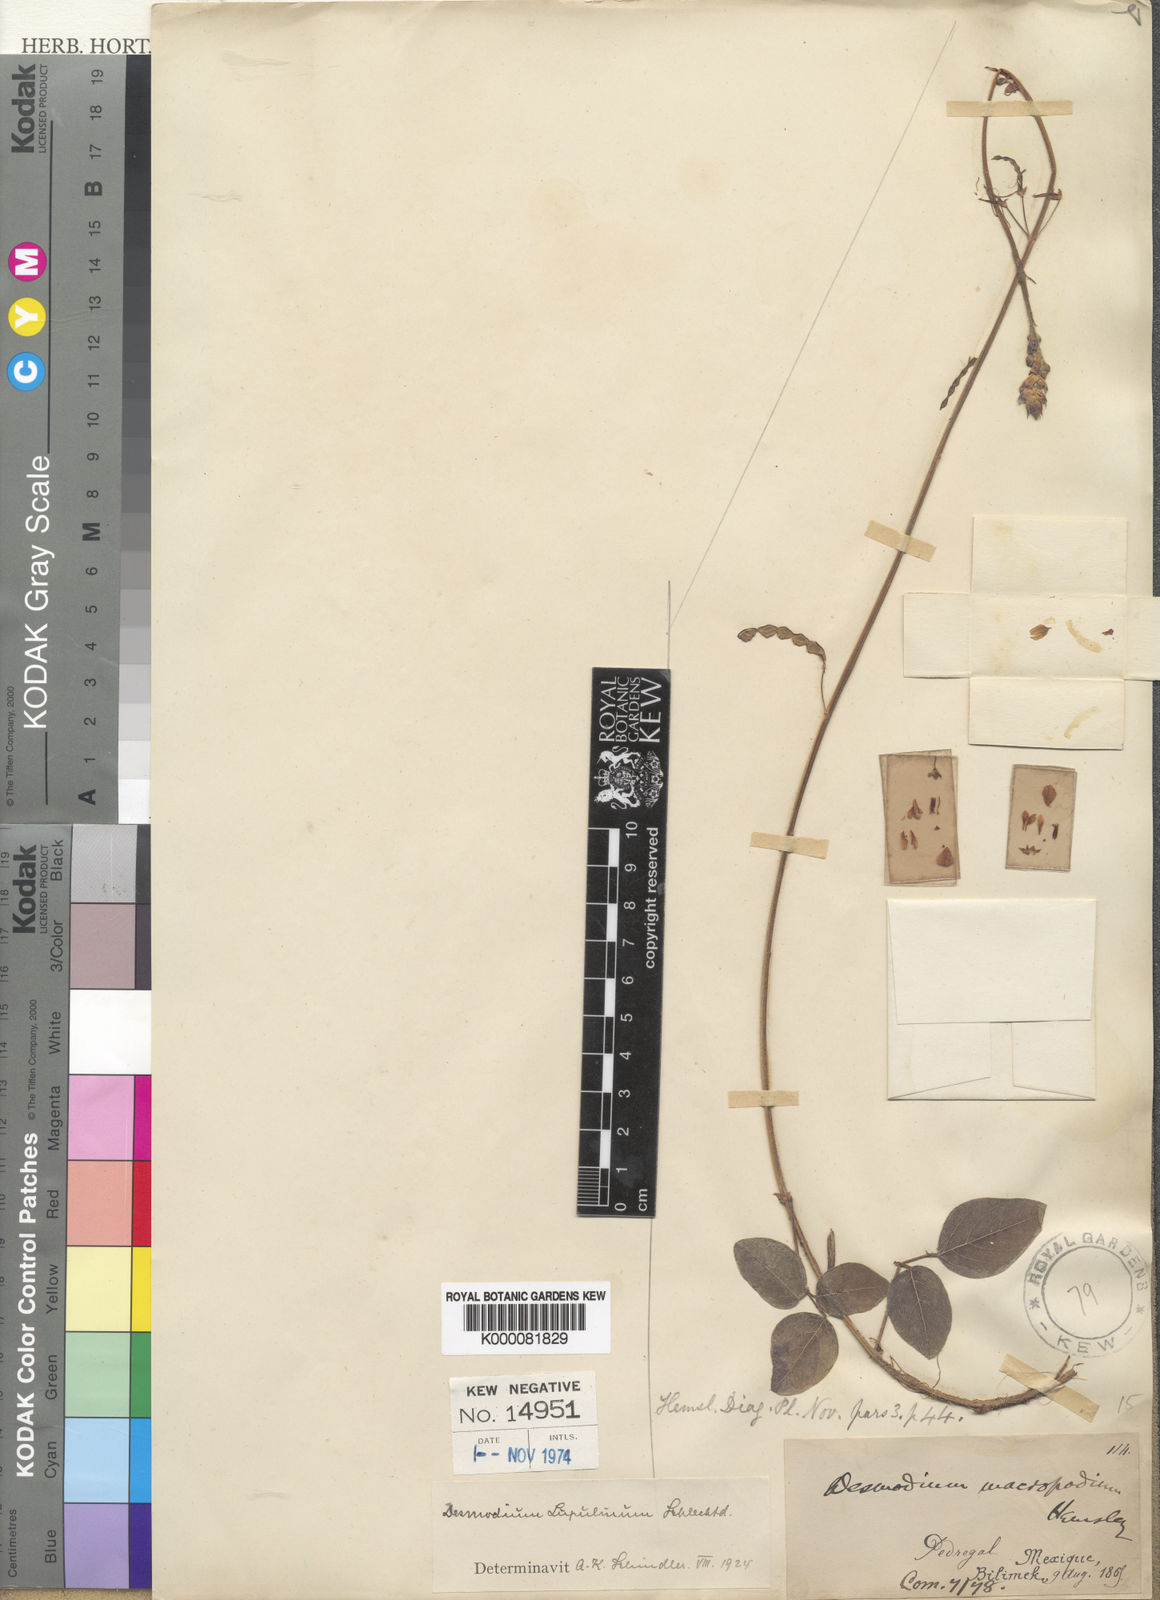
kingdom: Plantae
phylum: Tracheophyta
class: Magnoliopsida
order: Fabales
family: Fabaceae
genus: Desmodium
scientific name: Desmodium lupulinum
